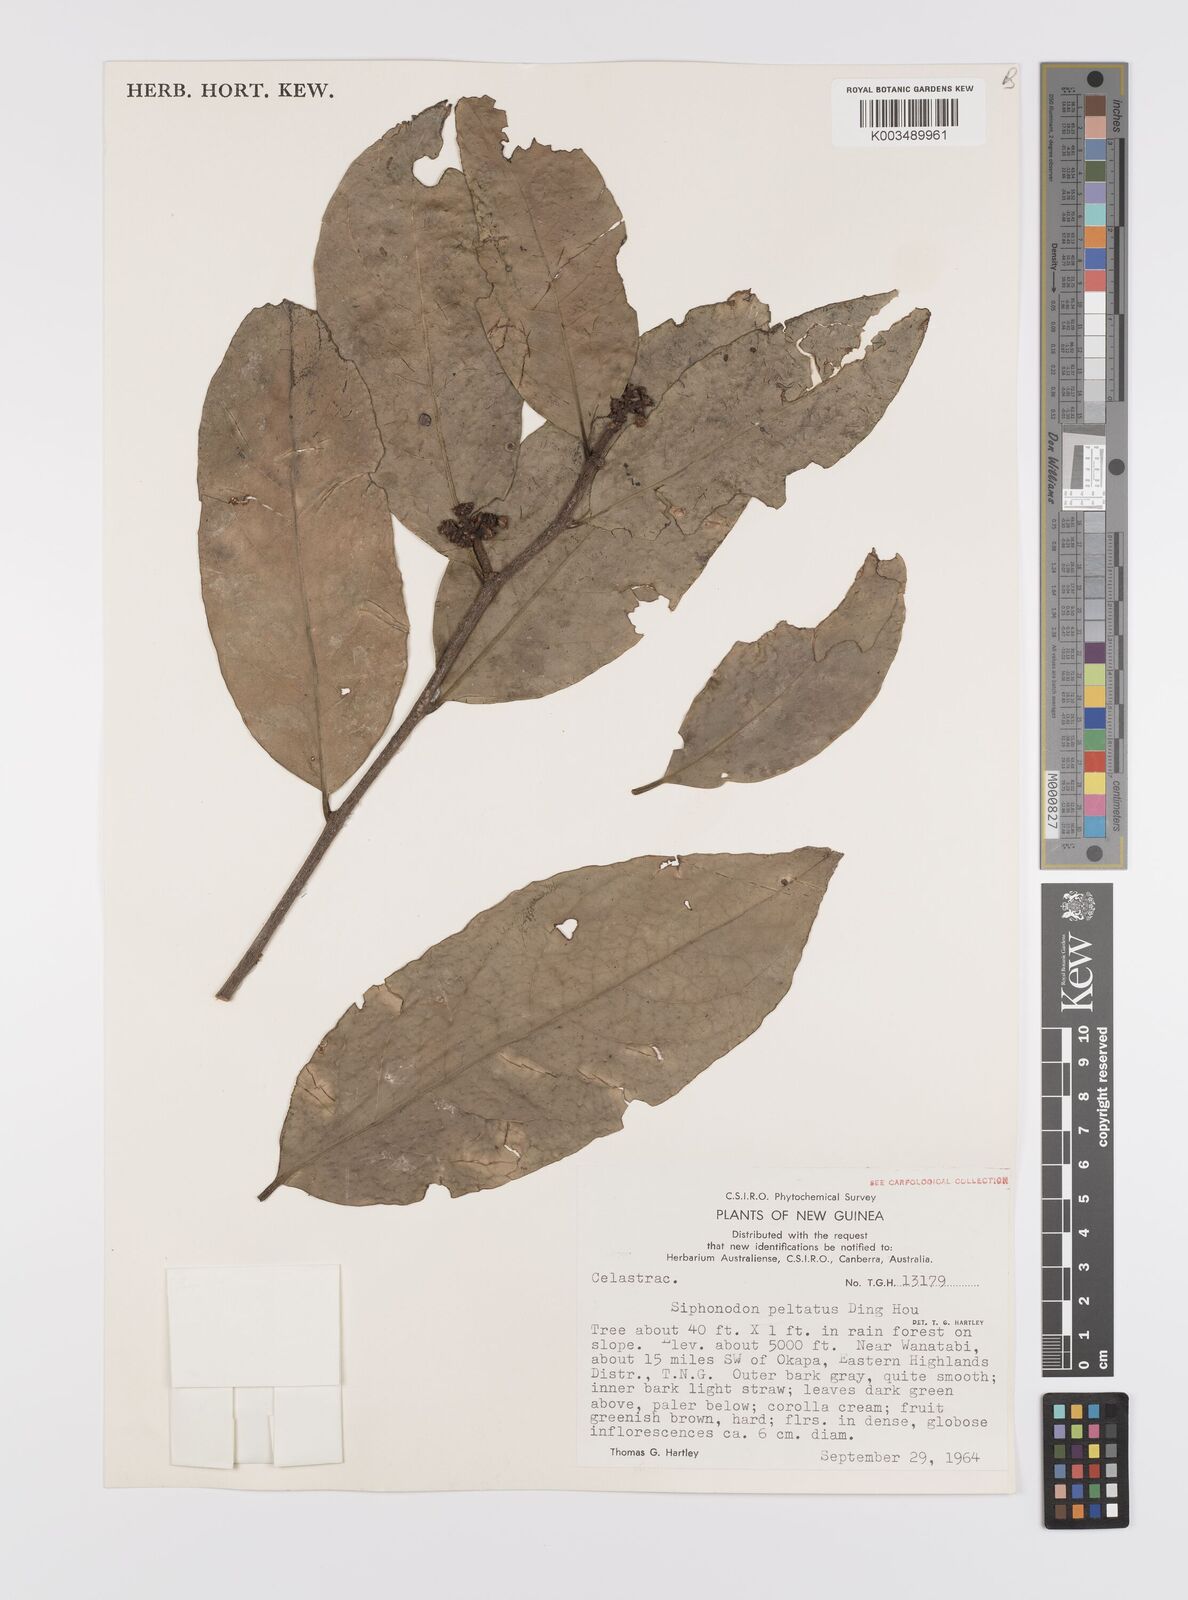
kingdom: Plantae
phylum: Tracheophyta
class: Magnoliopsida
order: Celastrales
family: Celastraceae
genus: Siphonodon
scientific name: Siphonodon peltatus
